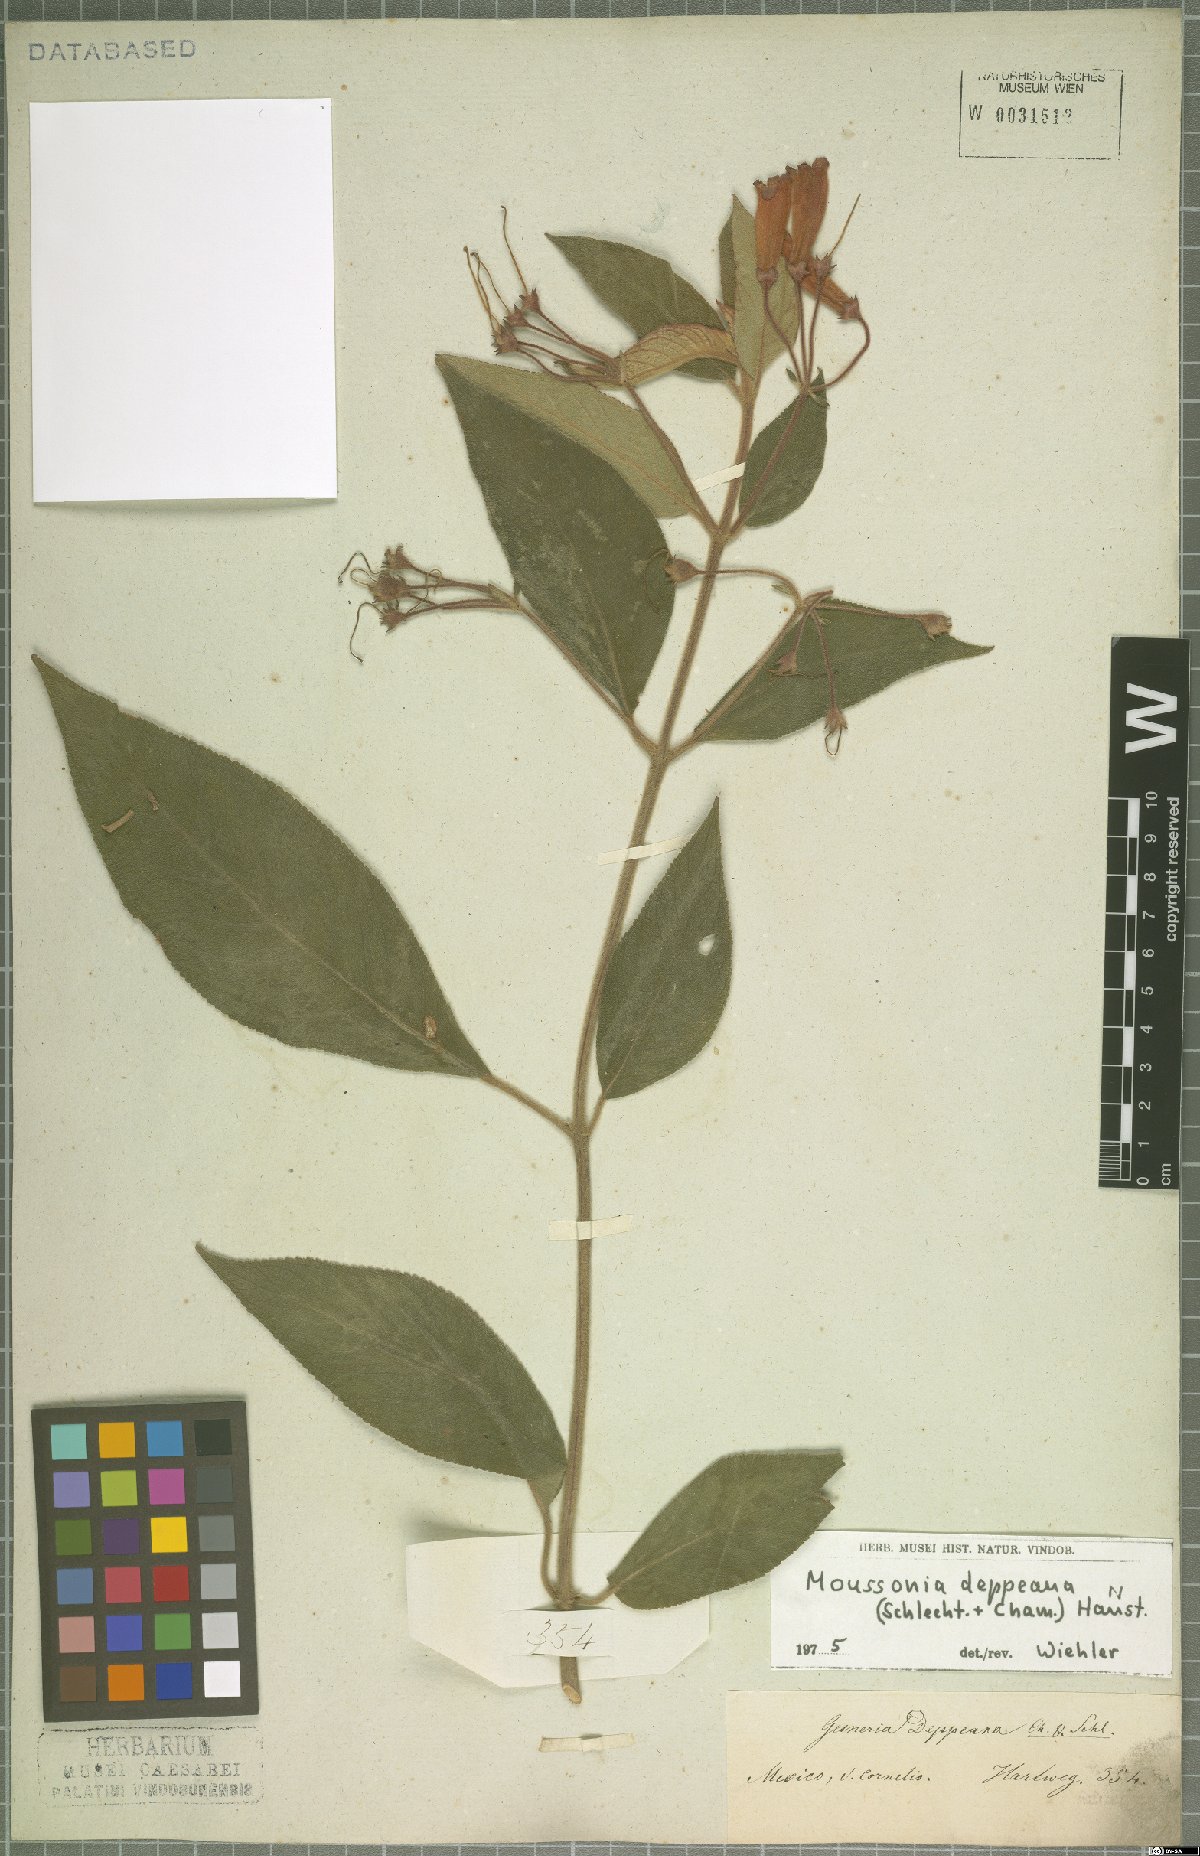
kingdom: Plantae
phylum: Tracheophyta
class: Magnoliopsida
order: Lamiales
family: Gesneriaceae
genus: Moussonia
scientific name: Moussonia deppeana
